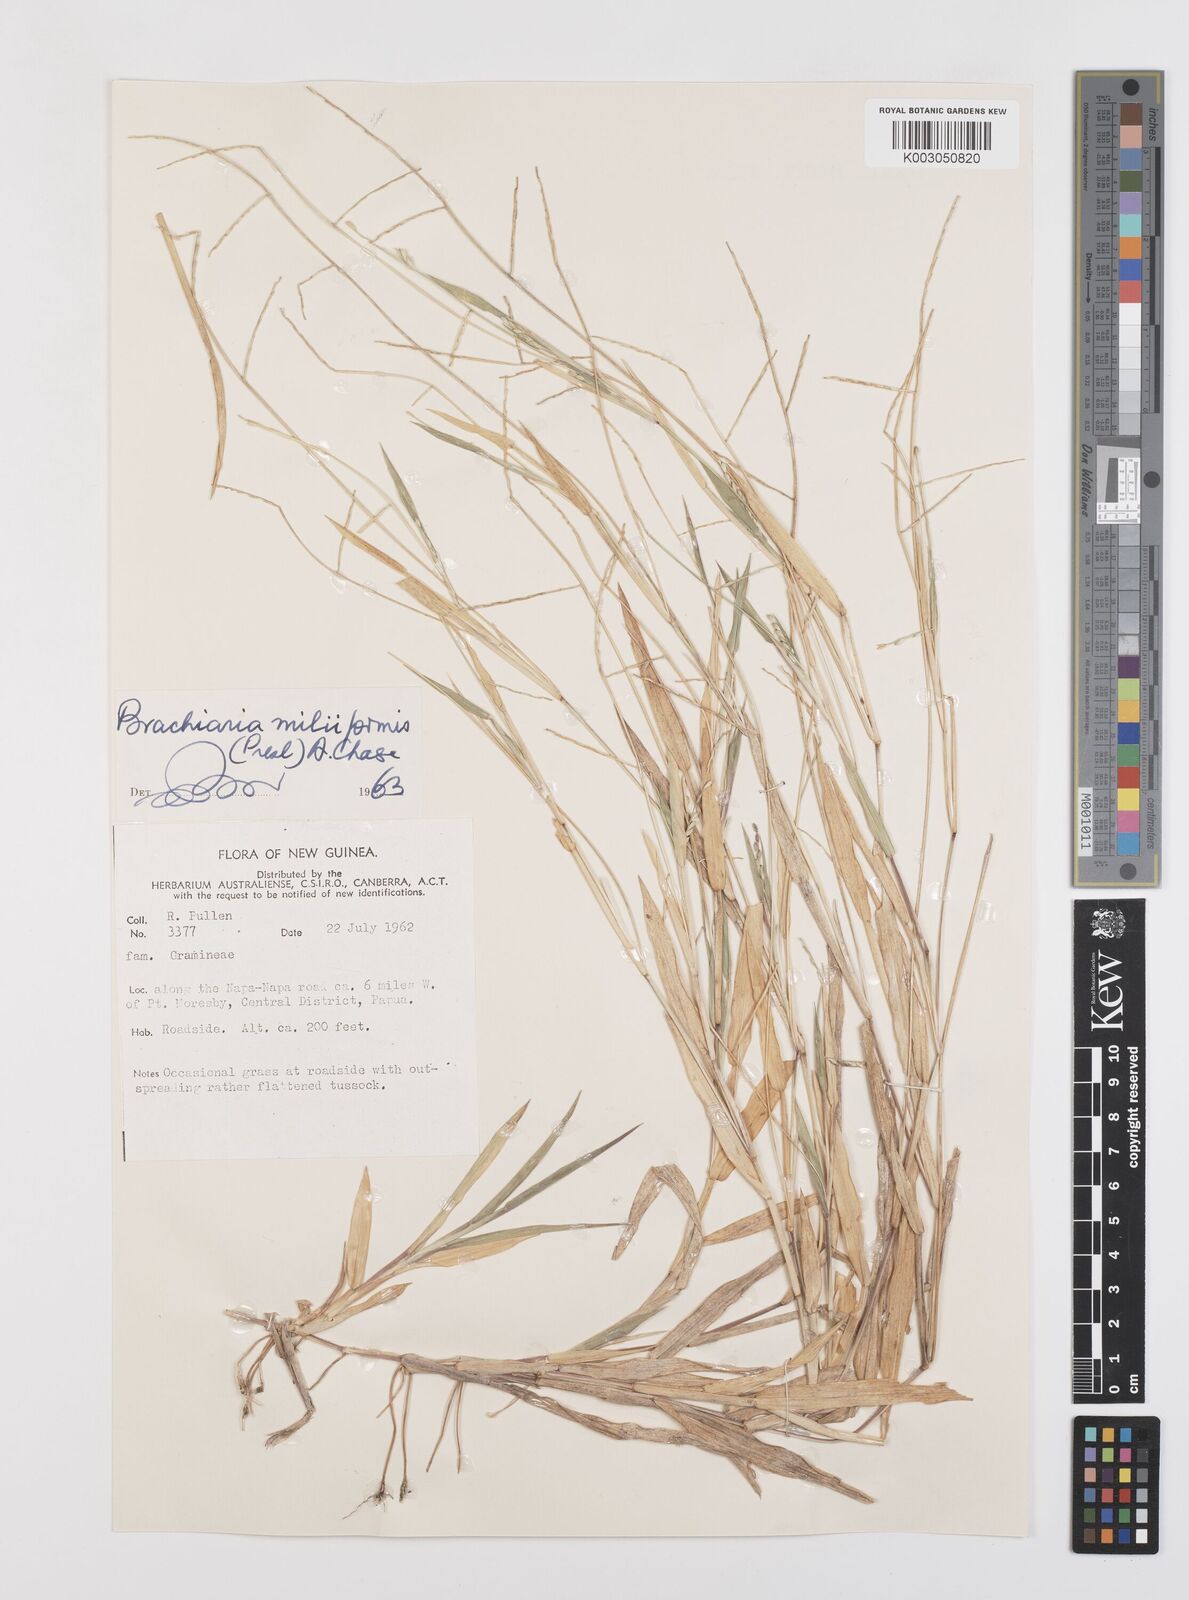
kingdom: Plantae
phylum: Tracheophyta
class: Liliopsida
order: Poales
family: Poaceae
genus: Urochloa
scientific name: Urochloa subquadripara
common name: Armgrass millet
